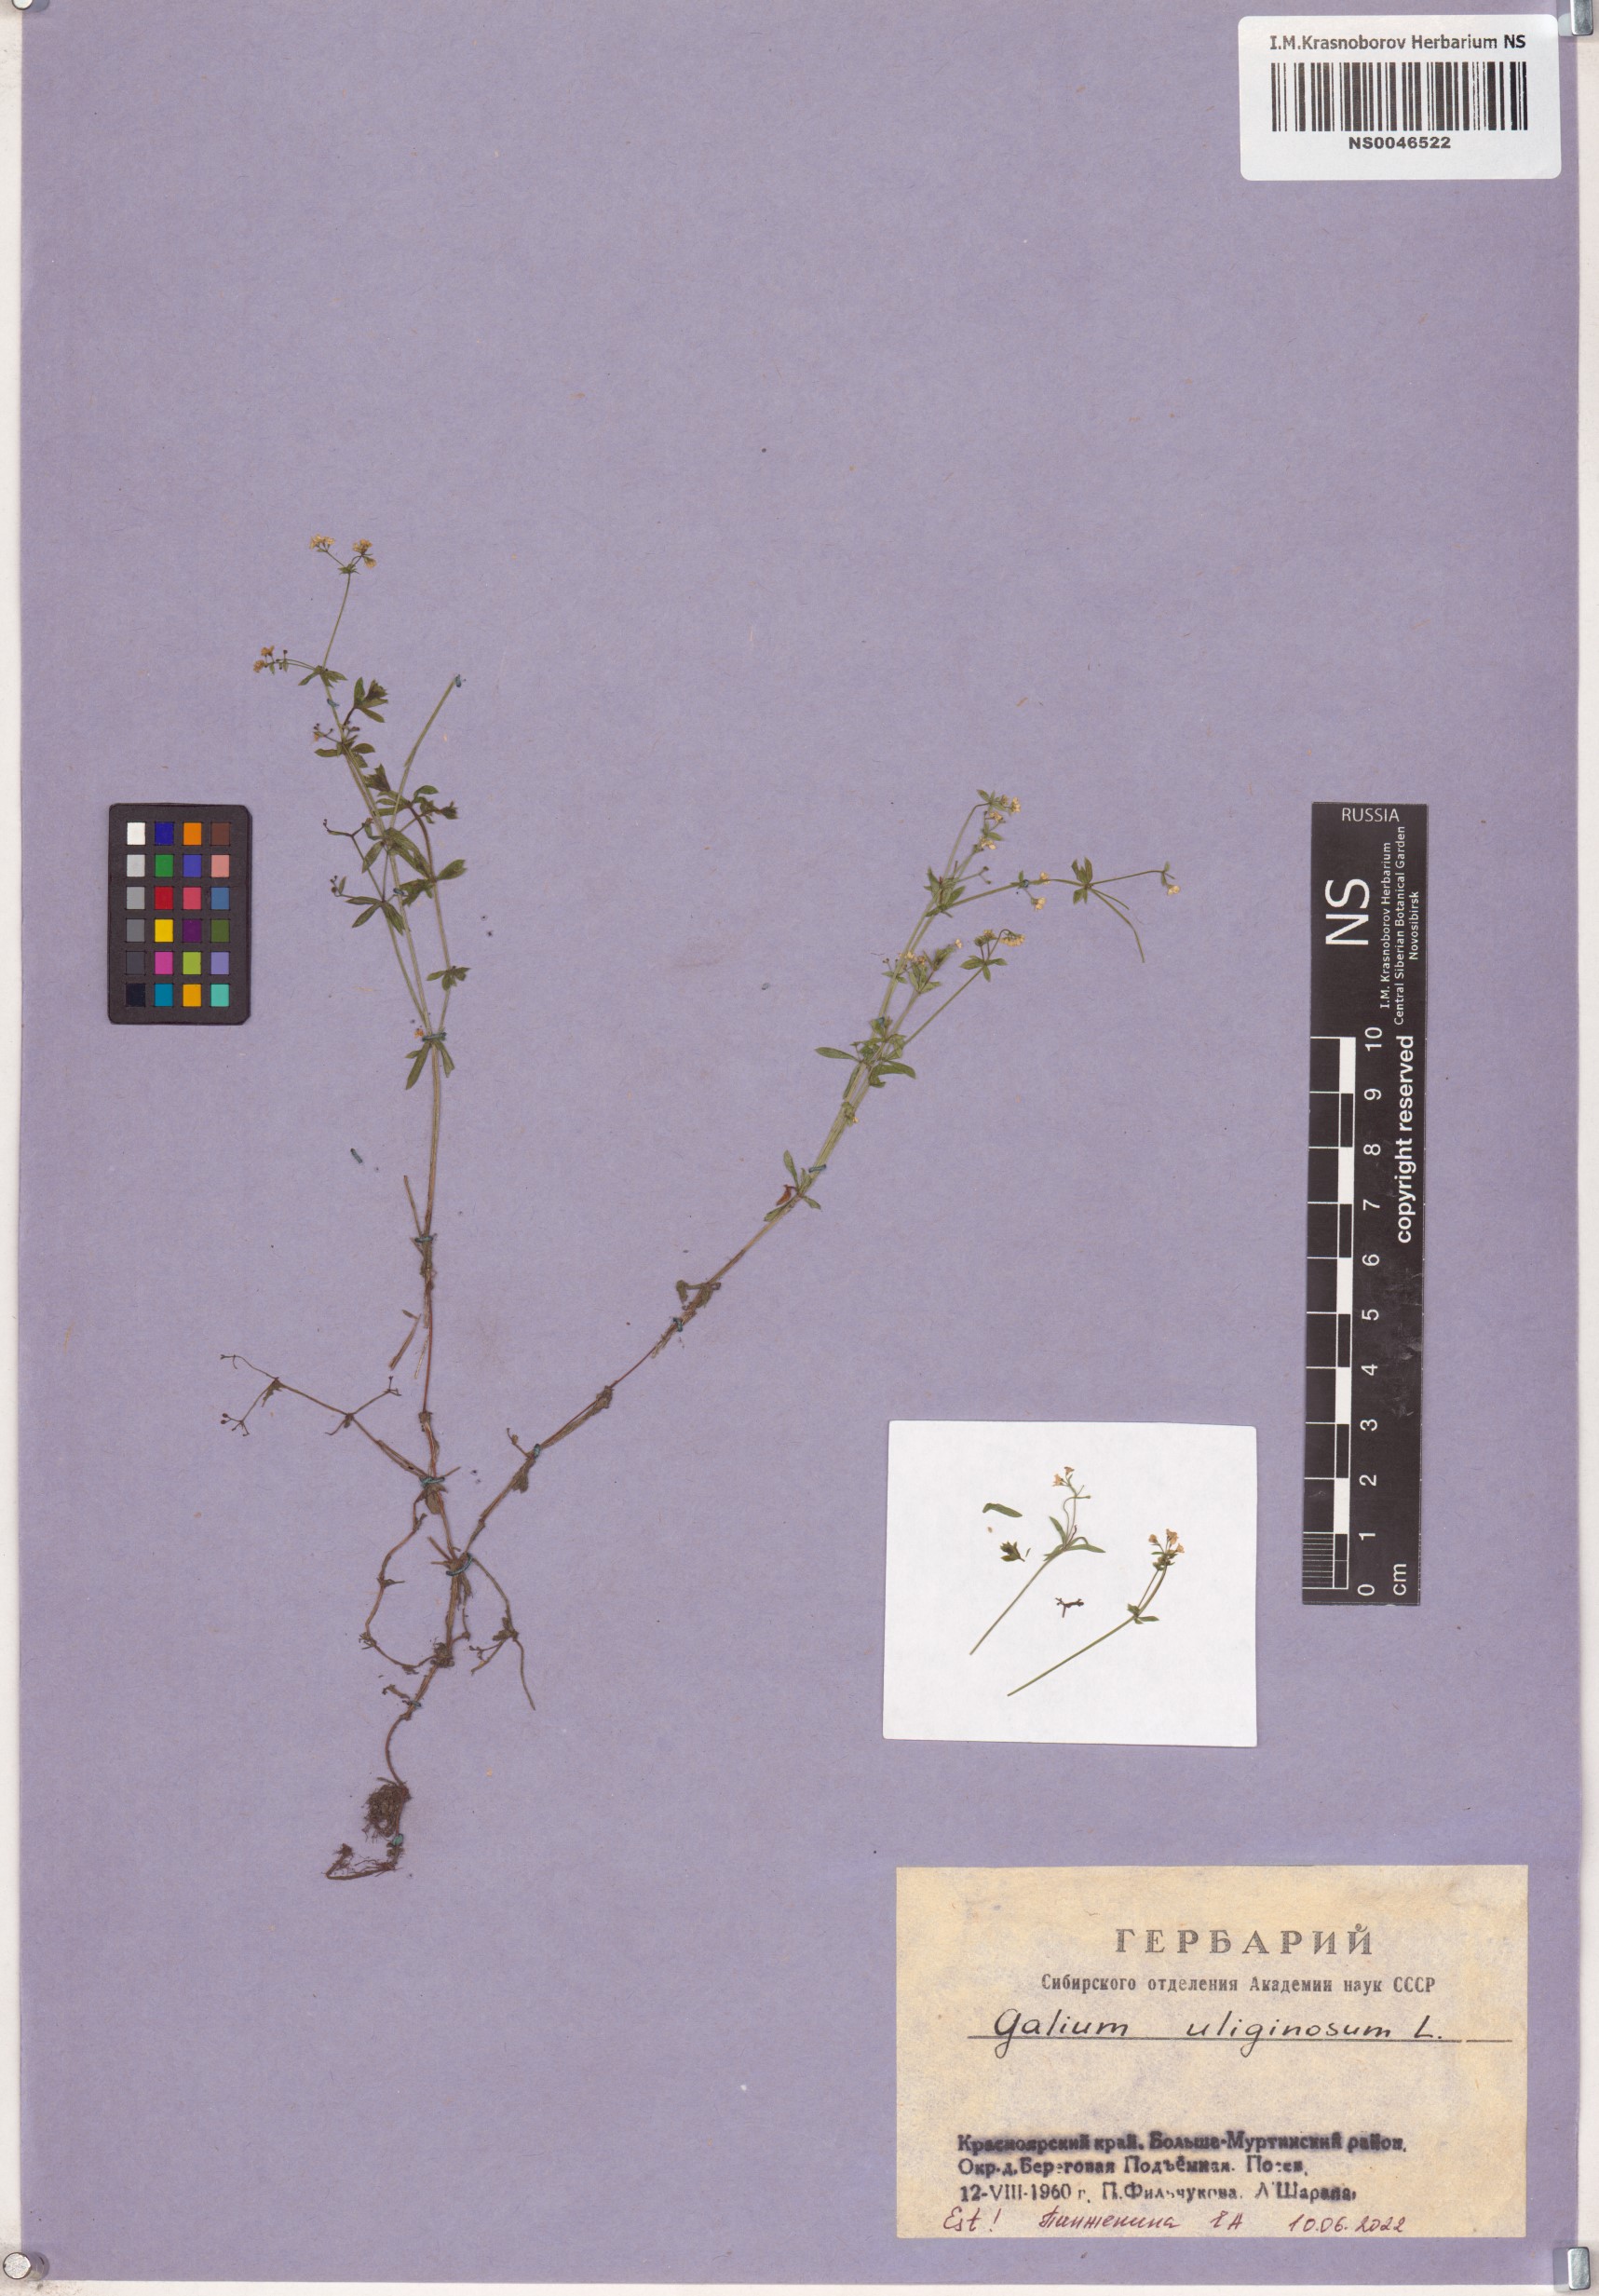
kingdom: Plantae
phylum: Tracheophyta
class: Magnoliopsida
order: Gentianales
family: Rubiaceae
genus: Galium
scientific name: Galium uliginosum
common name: Fen bedstraw
